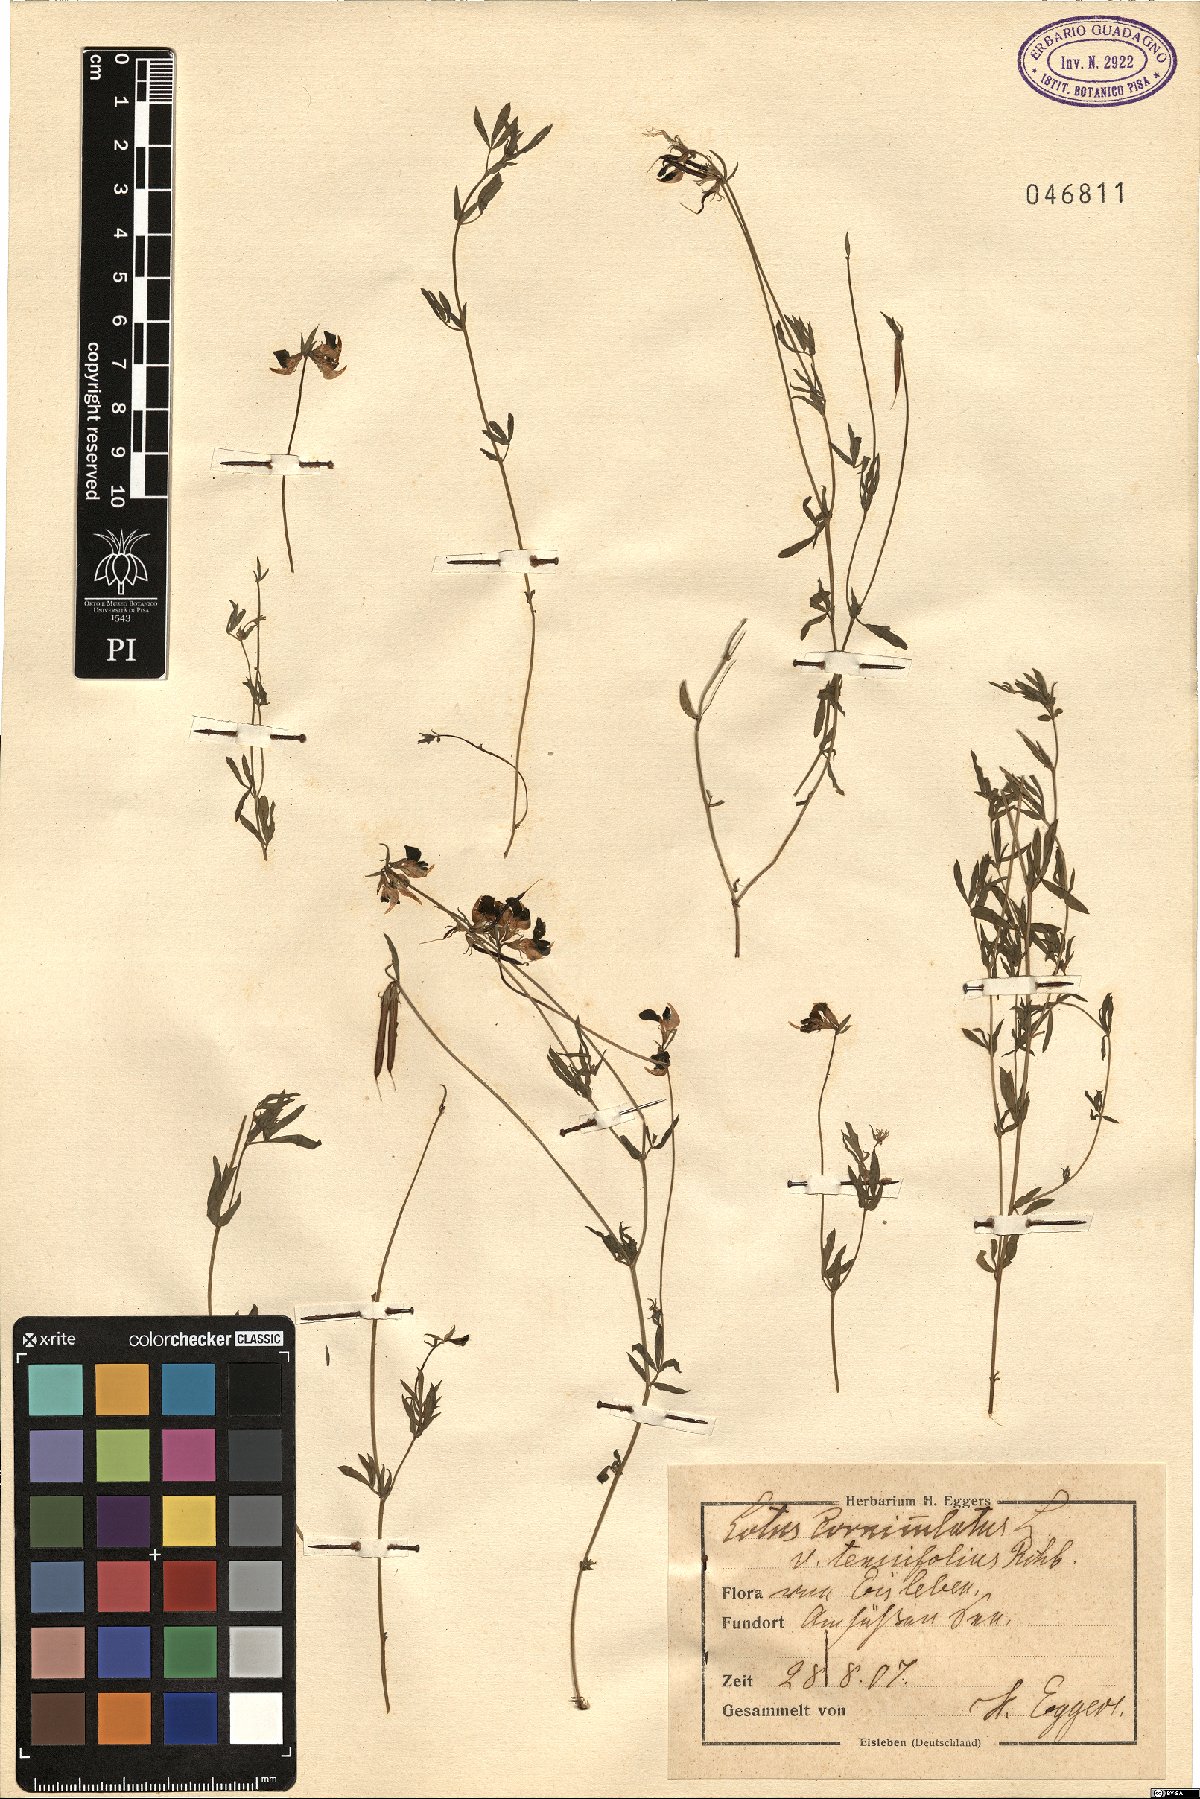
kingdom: Plantae
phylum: Tracheophyta
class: Magnoliopsida
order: Fabales
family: Fabaceae
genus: Lotus
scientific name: Lotus tenuis
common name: Narrow-leaved bird's-foot-trefoil
